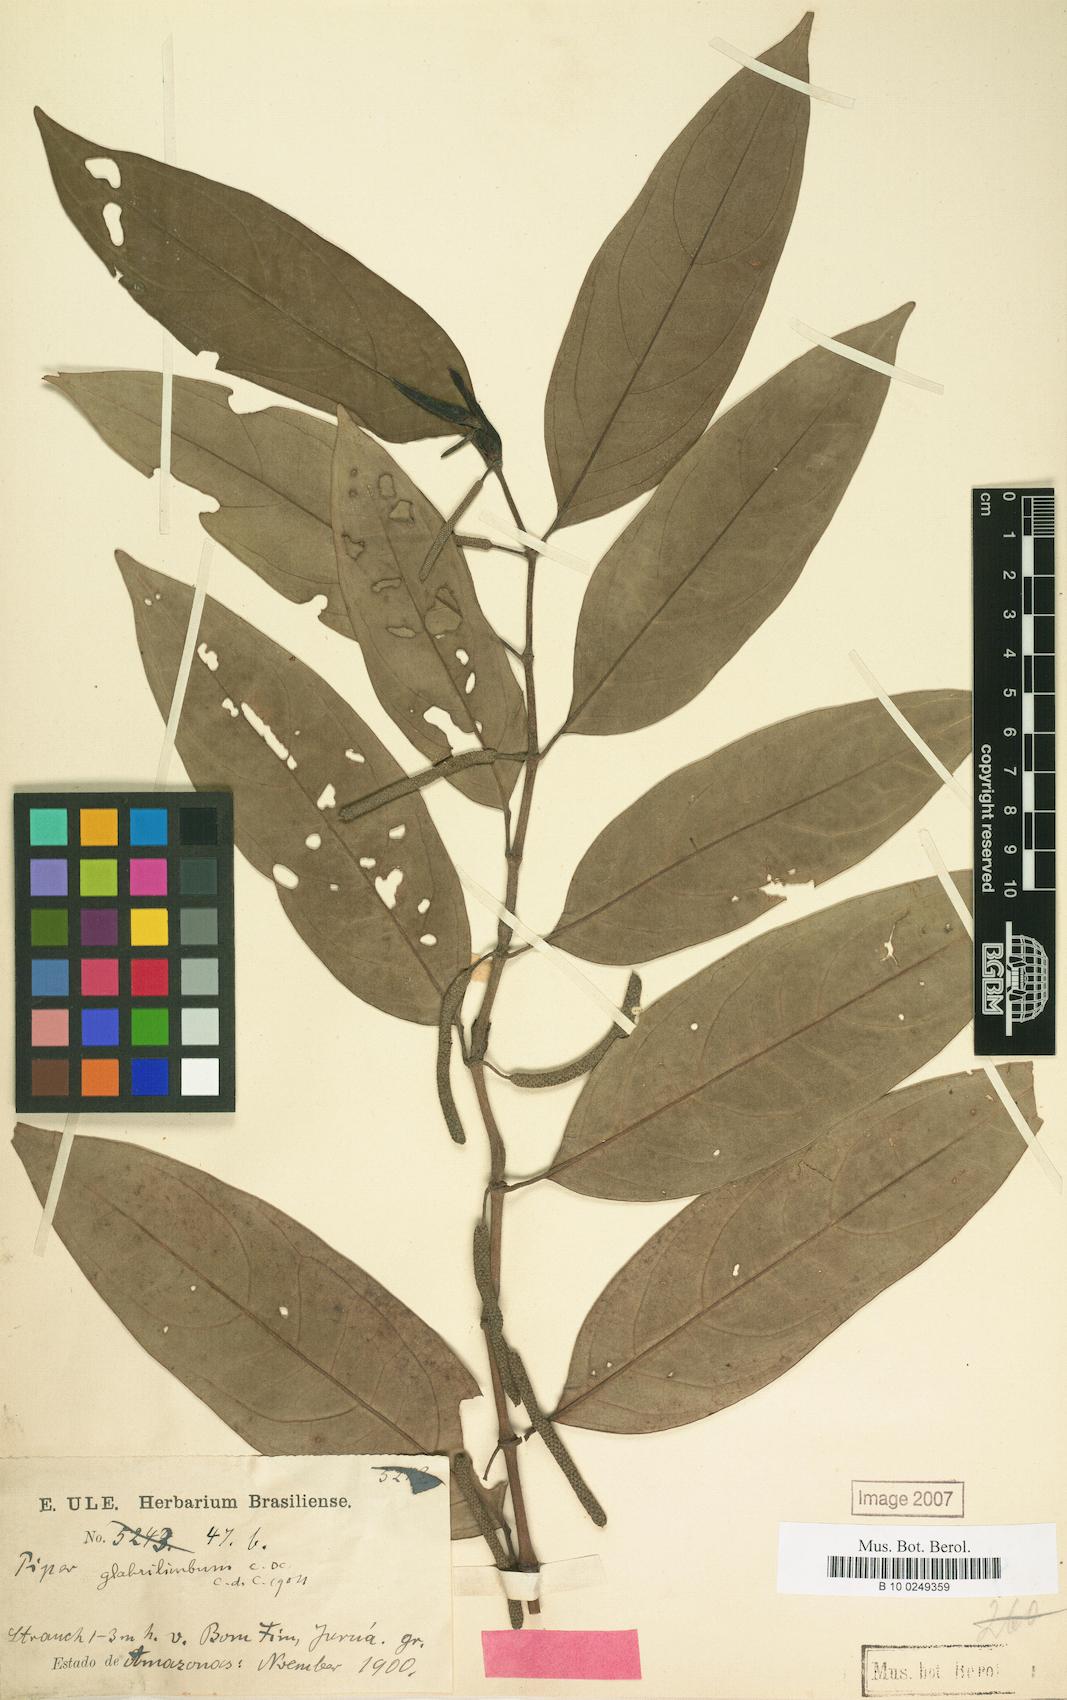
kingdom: Plantae
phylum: Tracheophyta
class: Magnoliopsida
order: Piperales
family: Piperaceae
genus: Piper
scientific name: Piper divaricatum
